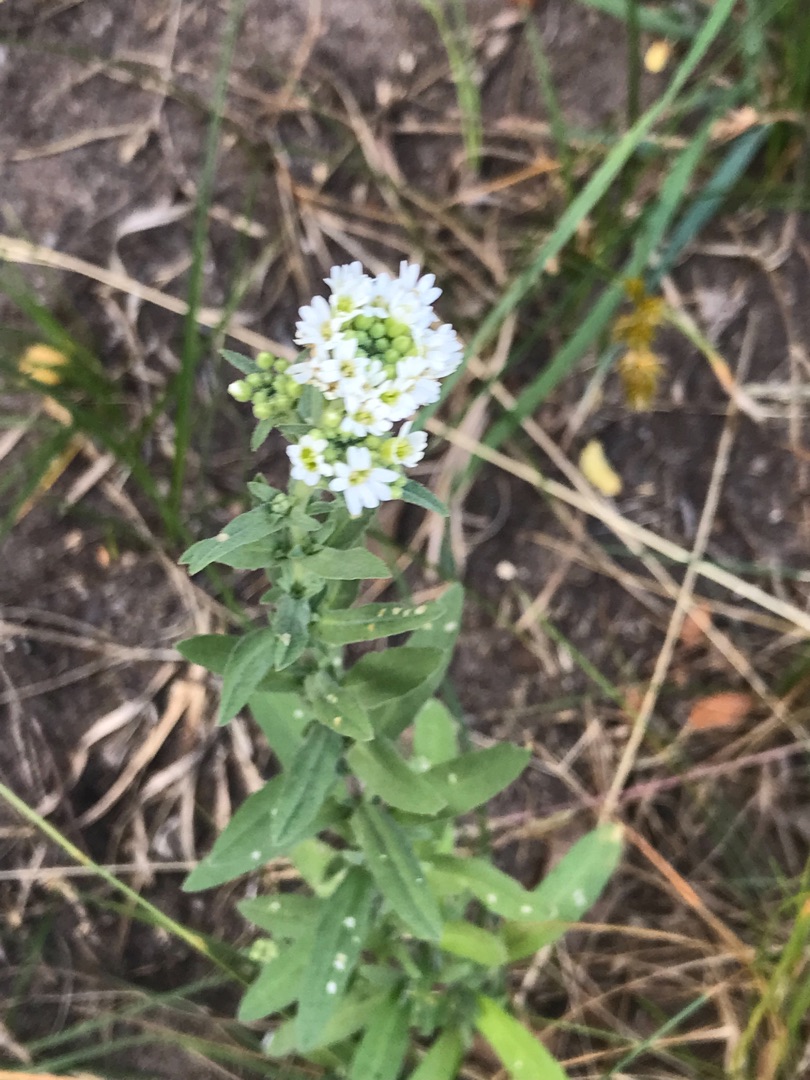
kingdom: Plantae
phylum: Tracheophyta
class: Magnoliopsida
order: Brassicales
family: Brassicaceae
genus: Berteroa
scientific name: Berteroa incana
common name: Kløvplade
